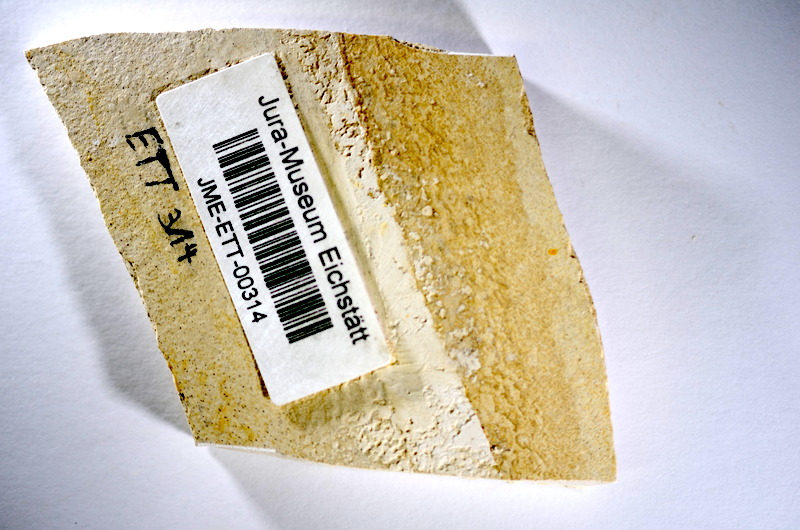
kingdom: Animalia
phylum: Chordata
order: Salmoniformes
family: Orthogonikleithridae
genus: Orthogonikleithrus
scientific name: Orthogonikleithrus hoelli
